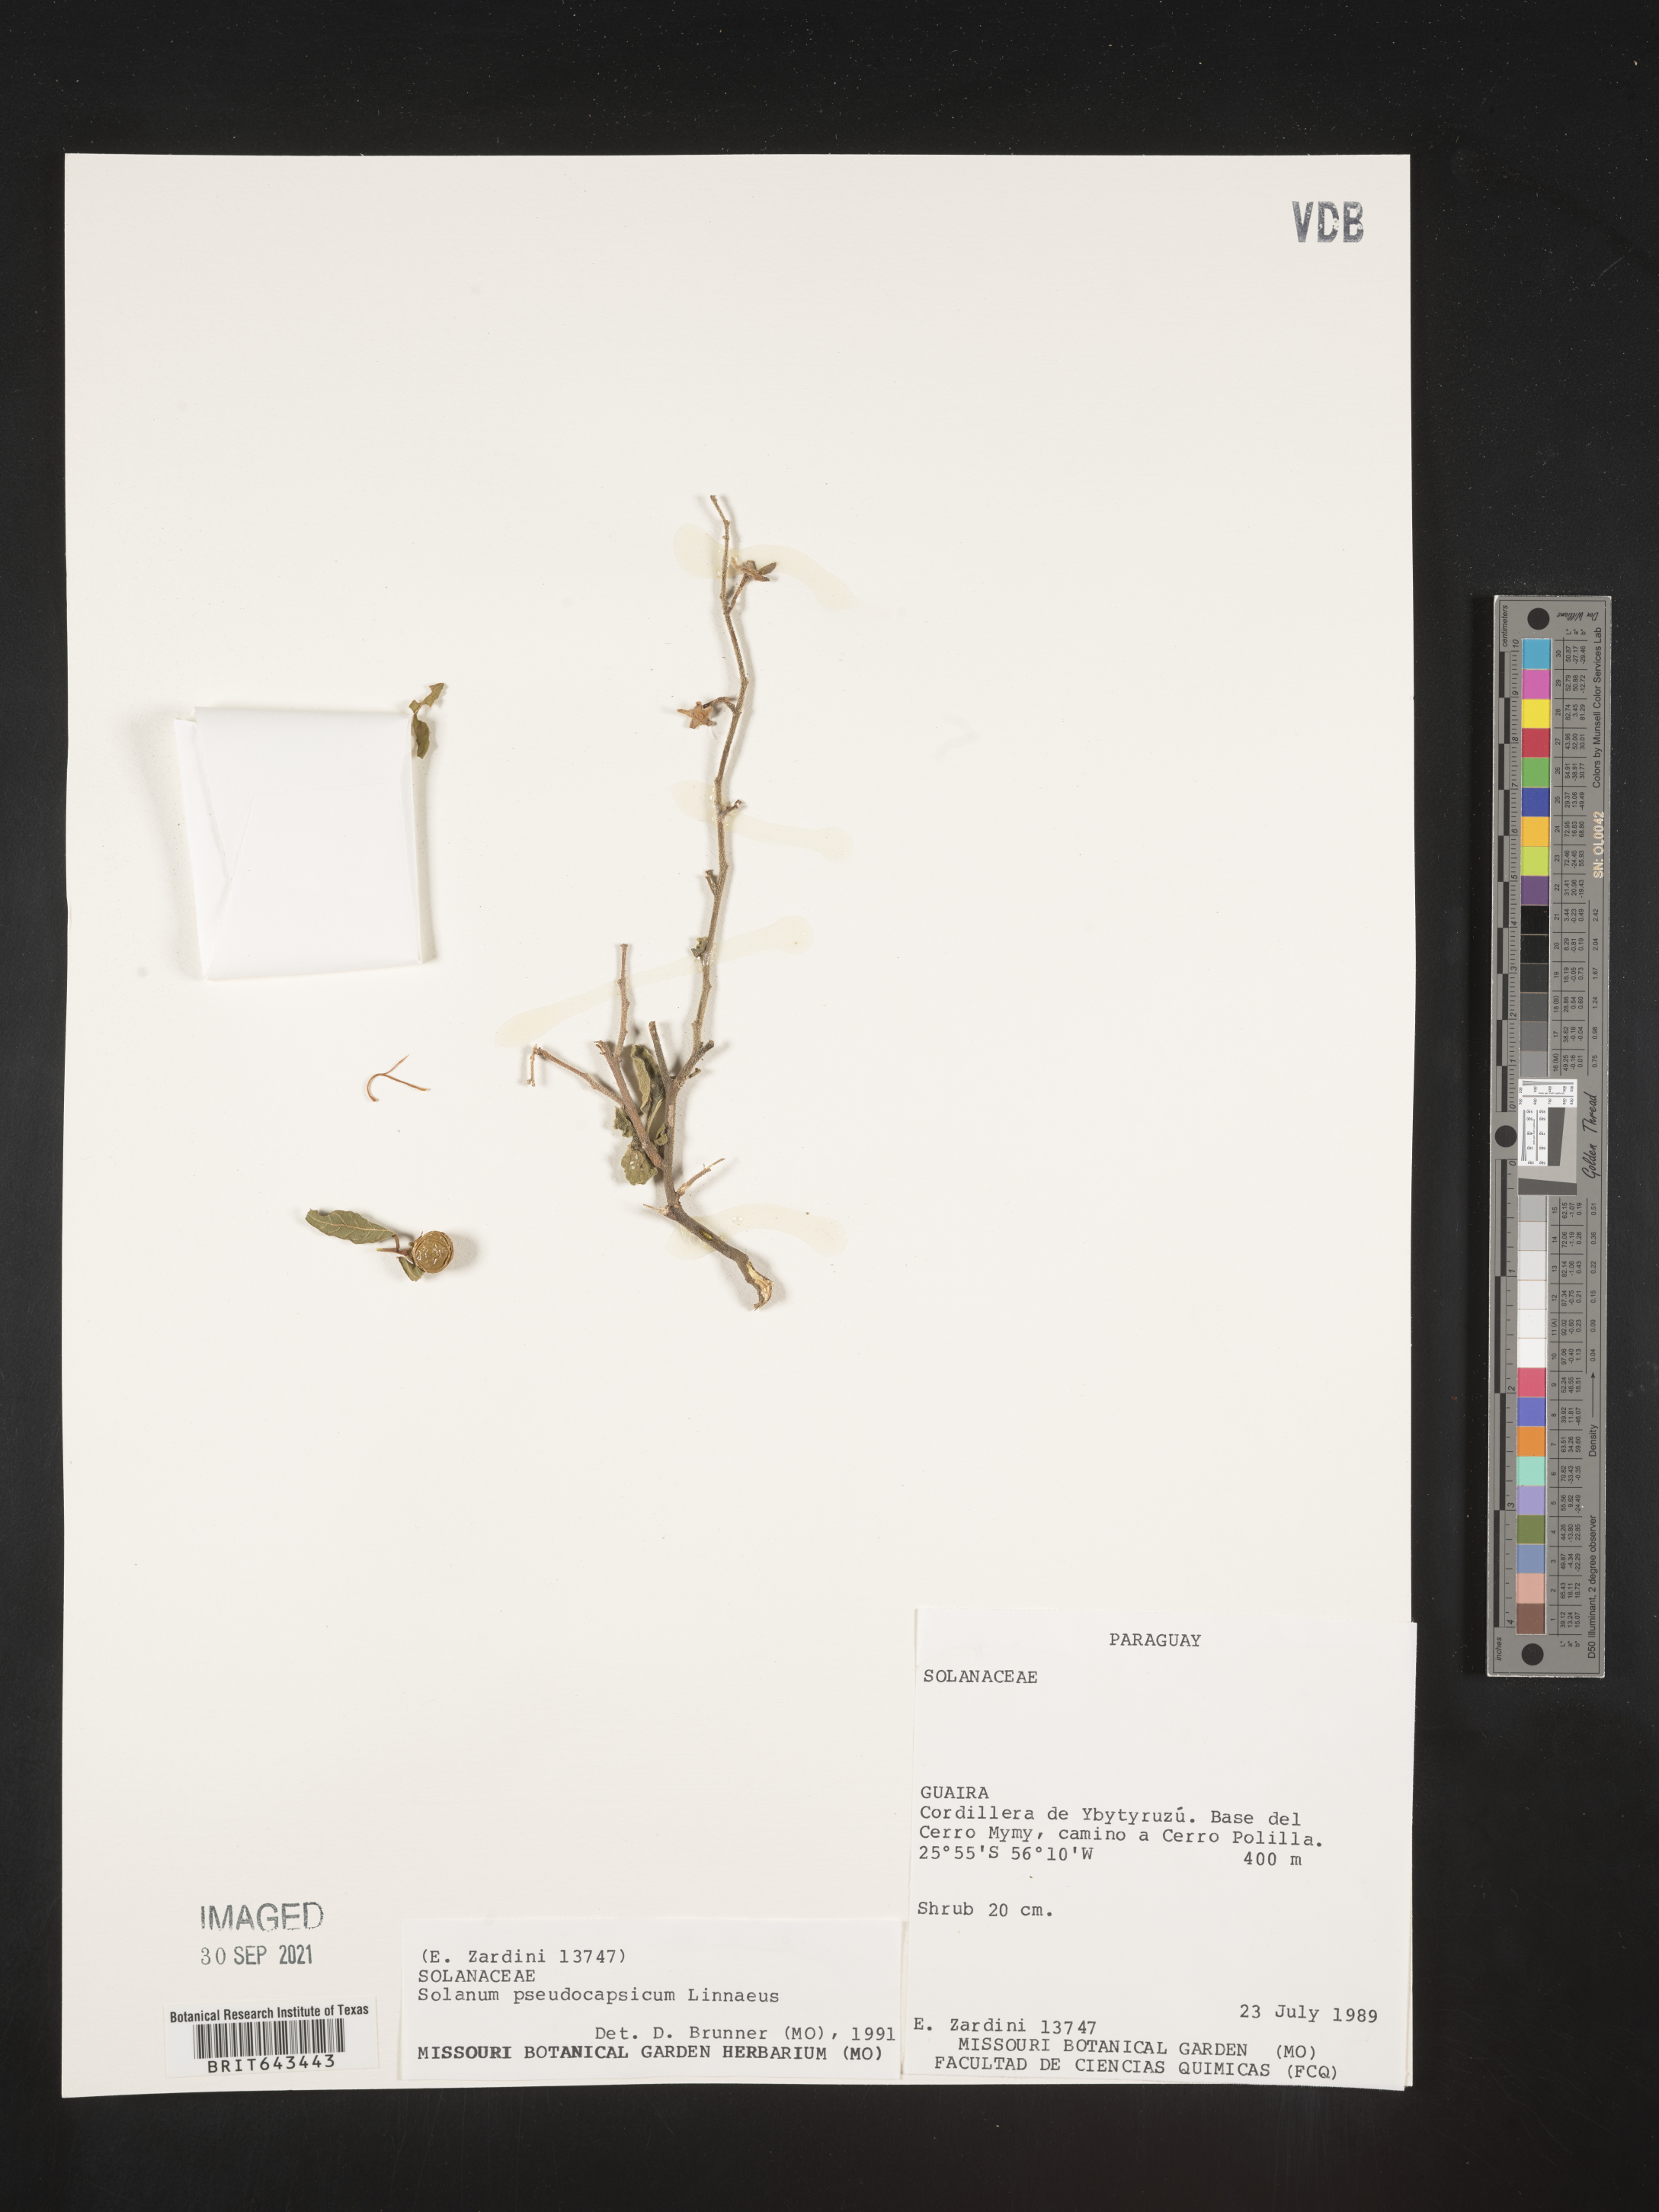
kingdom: Plantae
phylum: Tracheophyta
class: Magnoliopsida
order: Solanales
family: Solanaceae
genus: Solanum
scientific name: Solanum
